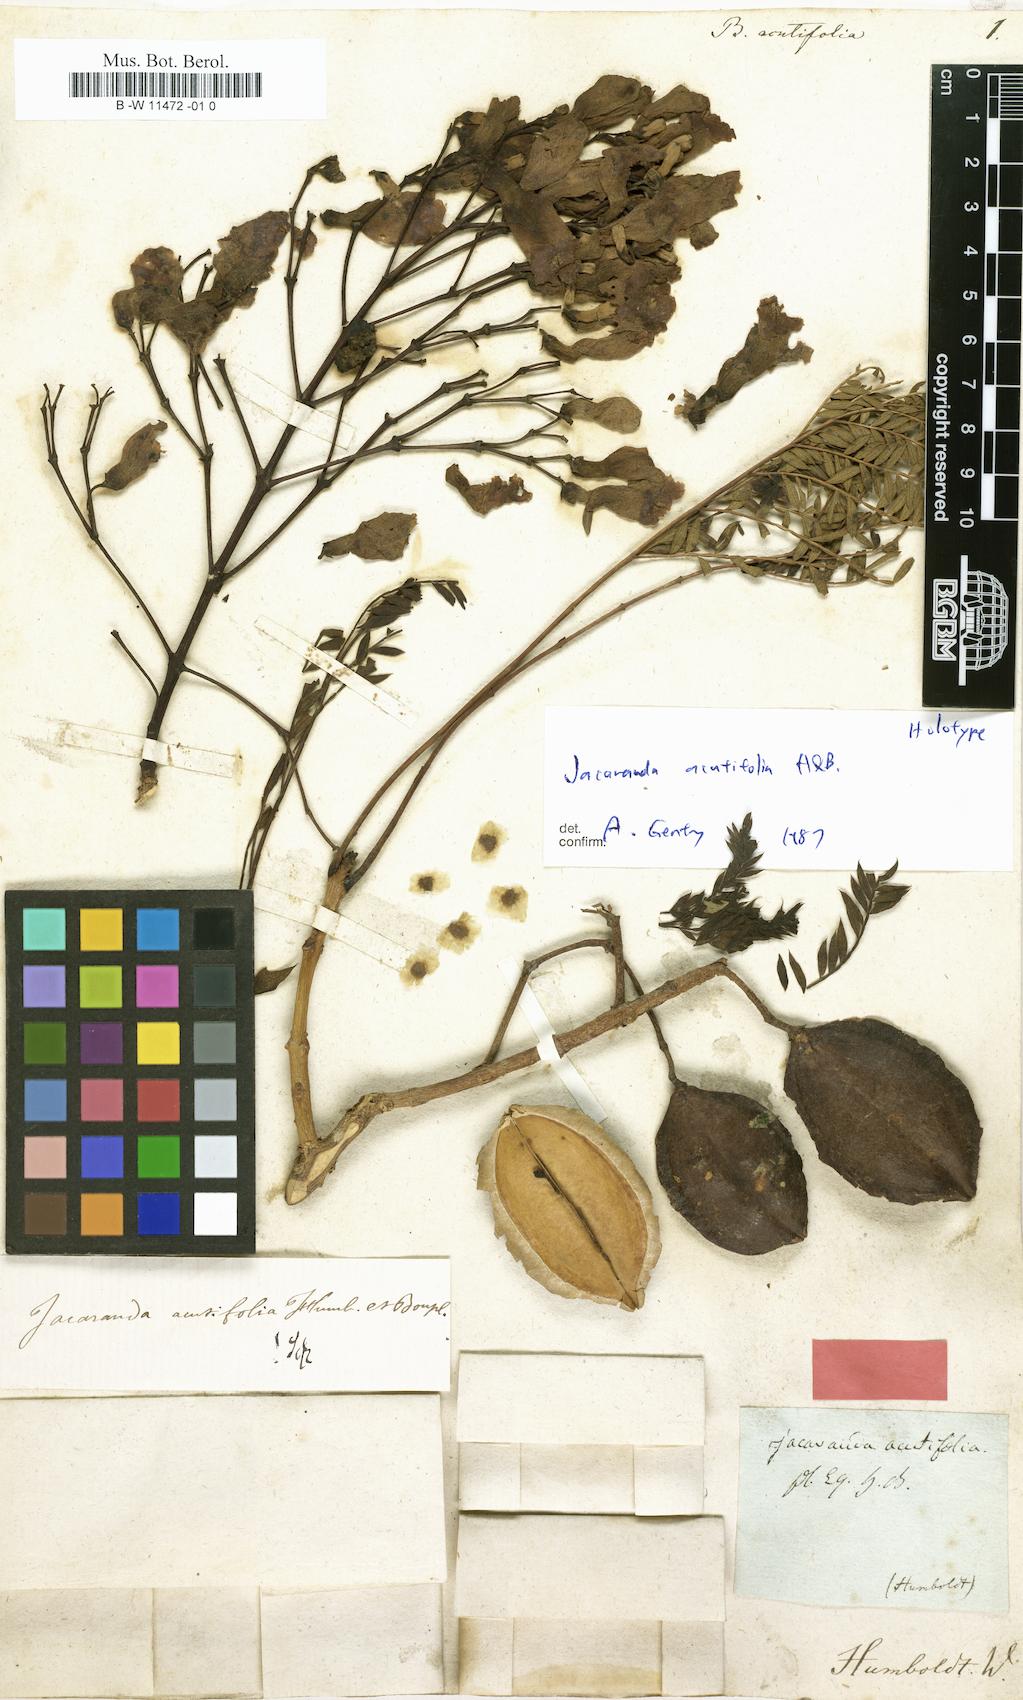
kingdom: Plantae
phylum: Tracheophyta
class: Magnoliopsida
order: Lamiales
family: Bignoniaceae
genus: Bignonia
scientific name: Bignonia acutiflora
